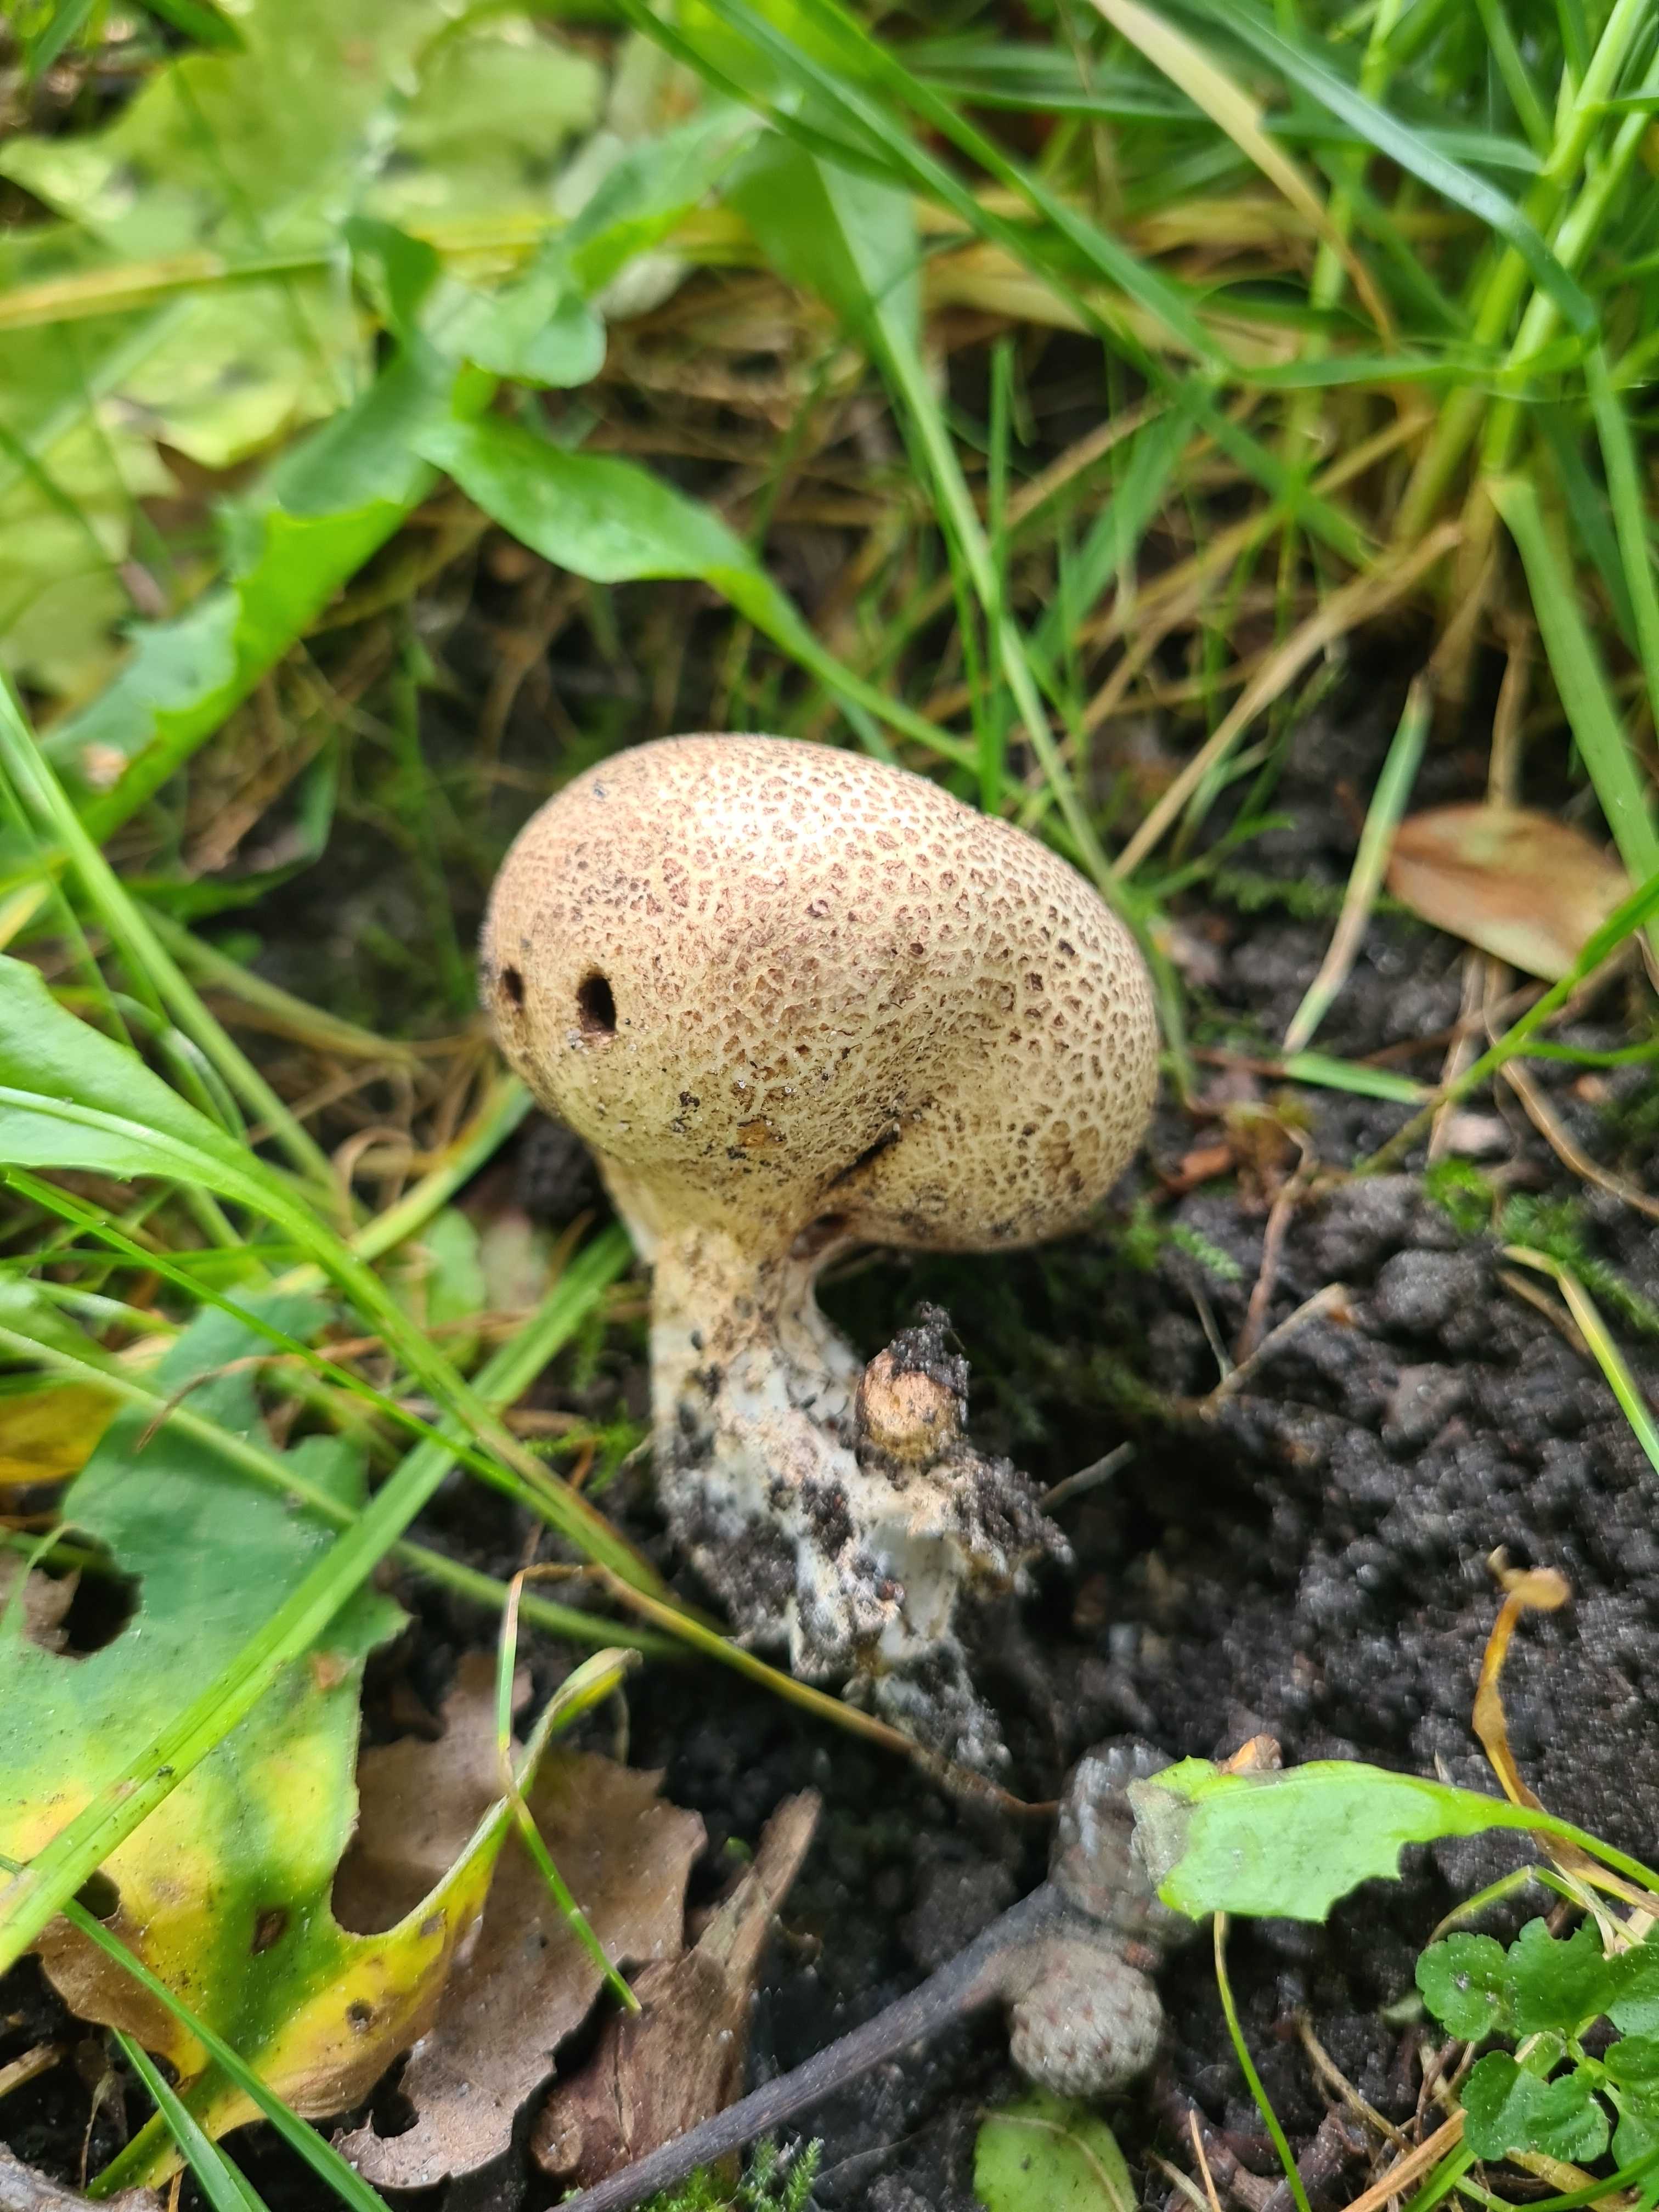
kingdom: Fungi
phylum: Basidiomycota
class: Agaricomycetes
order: Boletales
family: Sclerodermataceae
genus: Scleroderma
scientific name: Scleroderma areolatum
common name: plettet bruskbold
